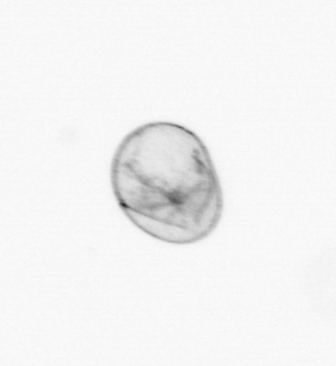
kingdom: Chromista
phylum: Myzozoa
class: Dinophyceae
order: Noctilucales
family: Noctilucaceae
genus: Noctiluca
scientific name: Noctiluca scintillans
